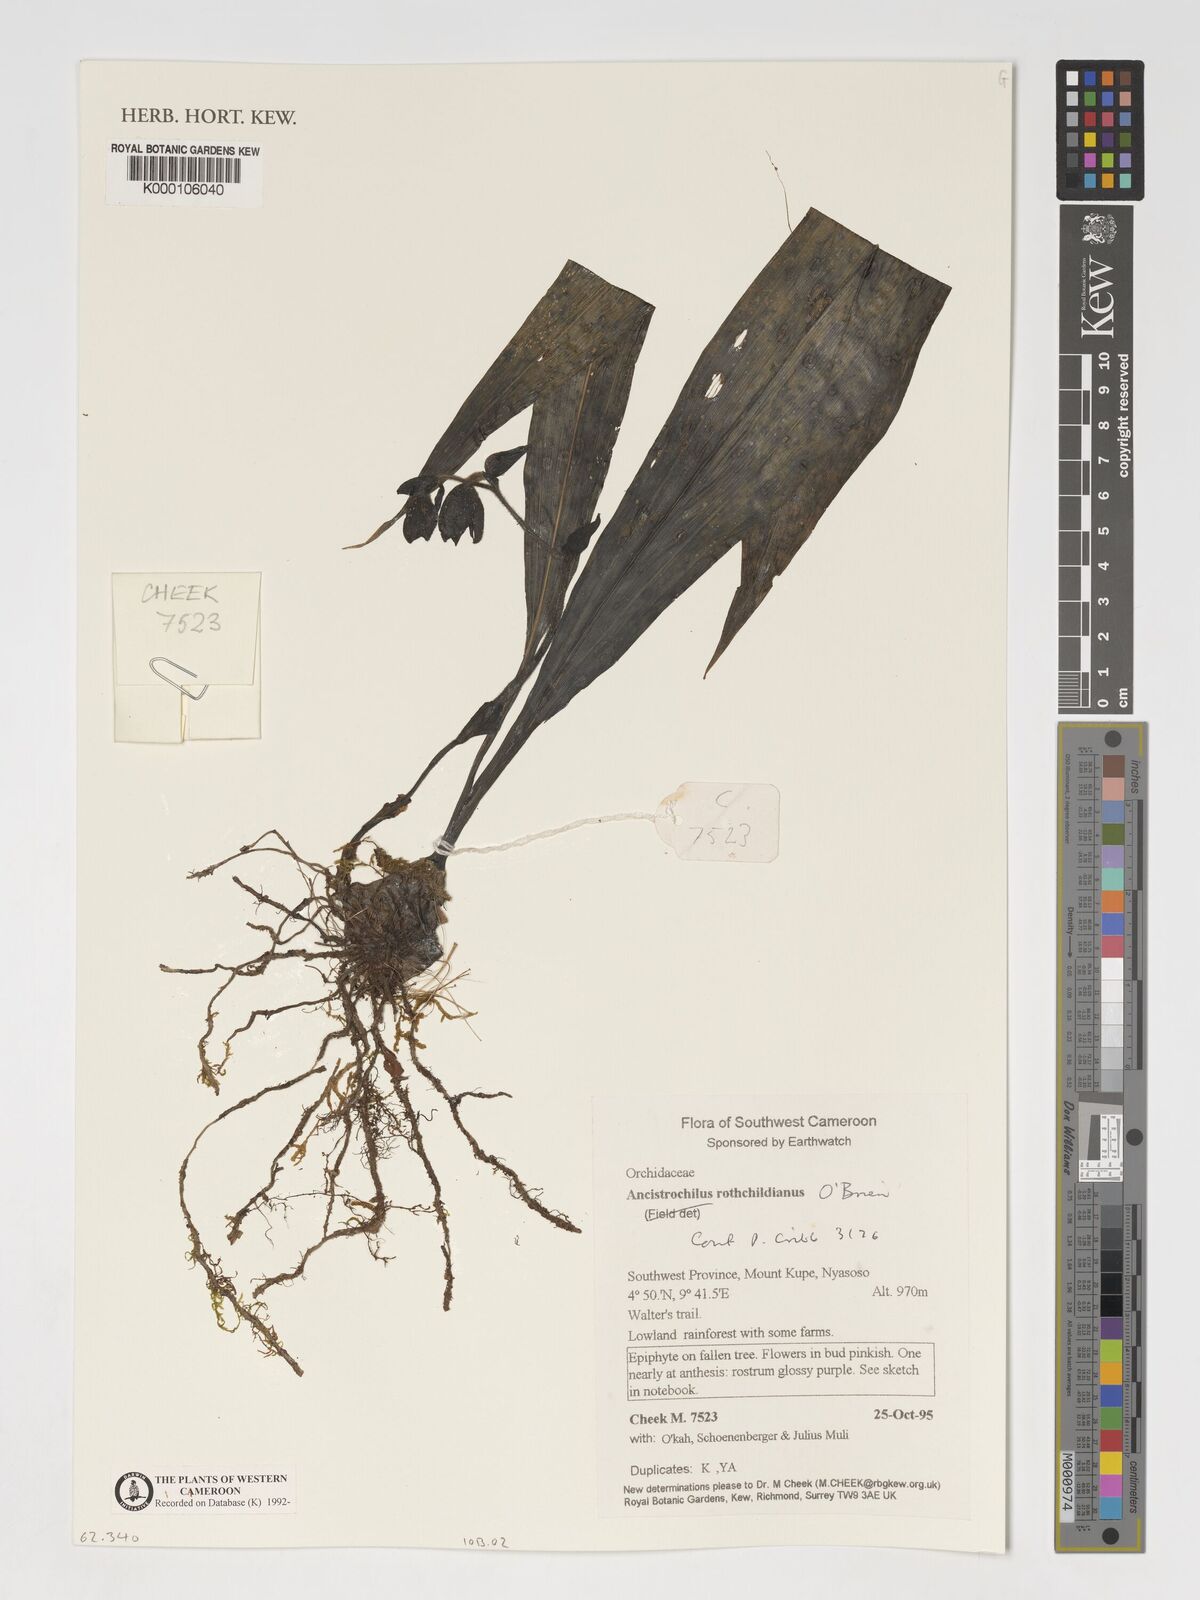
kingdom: Plantae
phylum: Tracheophyta
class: Liliopsida
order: Asparagales
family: Orchidaceae
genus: Ancistrochilus
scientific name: Ancistrochilus rothschildianus
